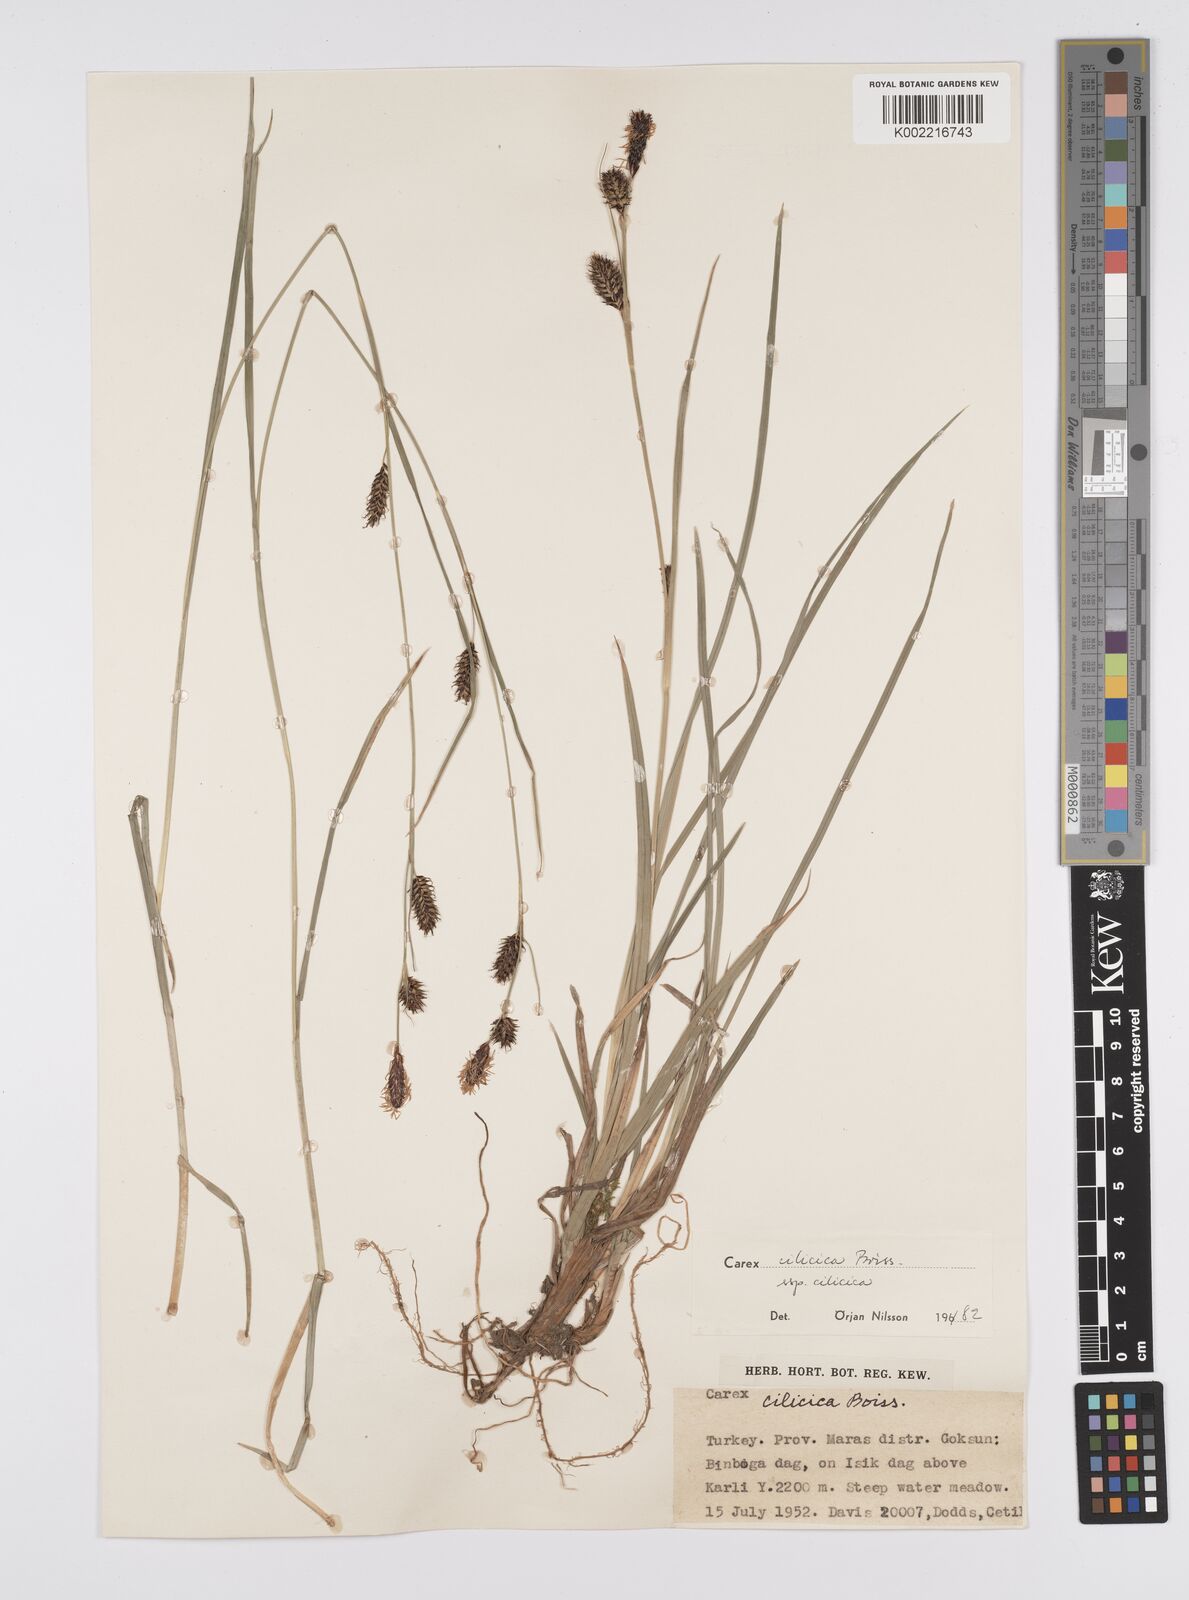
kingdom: Plantae
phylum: Tracheophyta
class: Liliopsida
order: Poales
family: Cyperaceae
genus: Carex
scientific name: Carex cilicica
